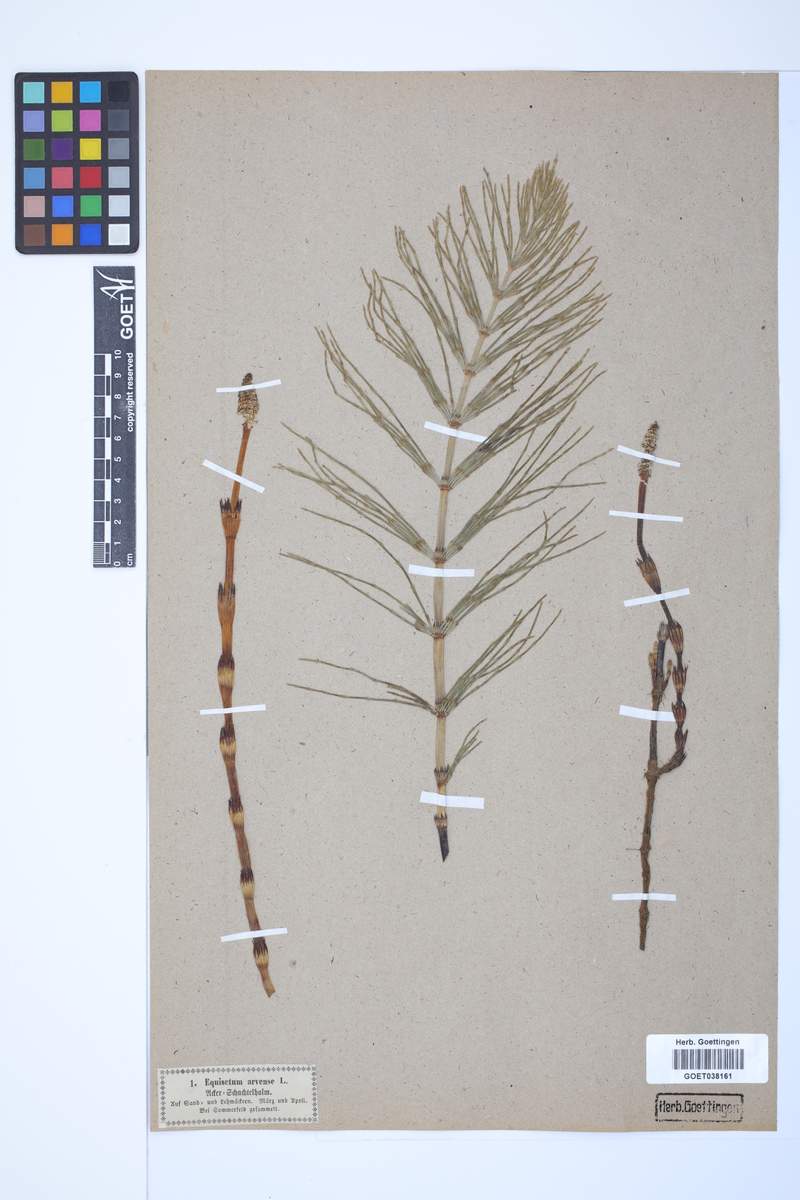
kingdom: Plantae
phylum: Tracheophyta
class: Polypodiopsida
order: Equisetales
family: Equisetaceae
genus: Equisetum
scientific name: Equisetum arvense
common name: Field horsetail
